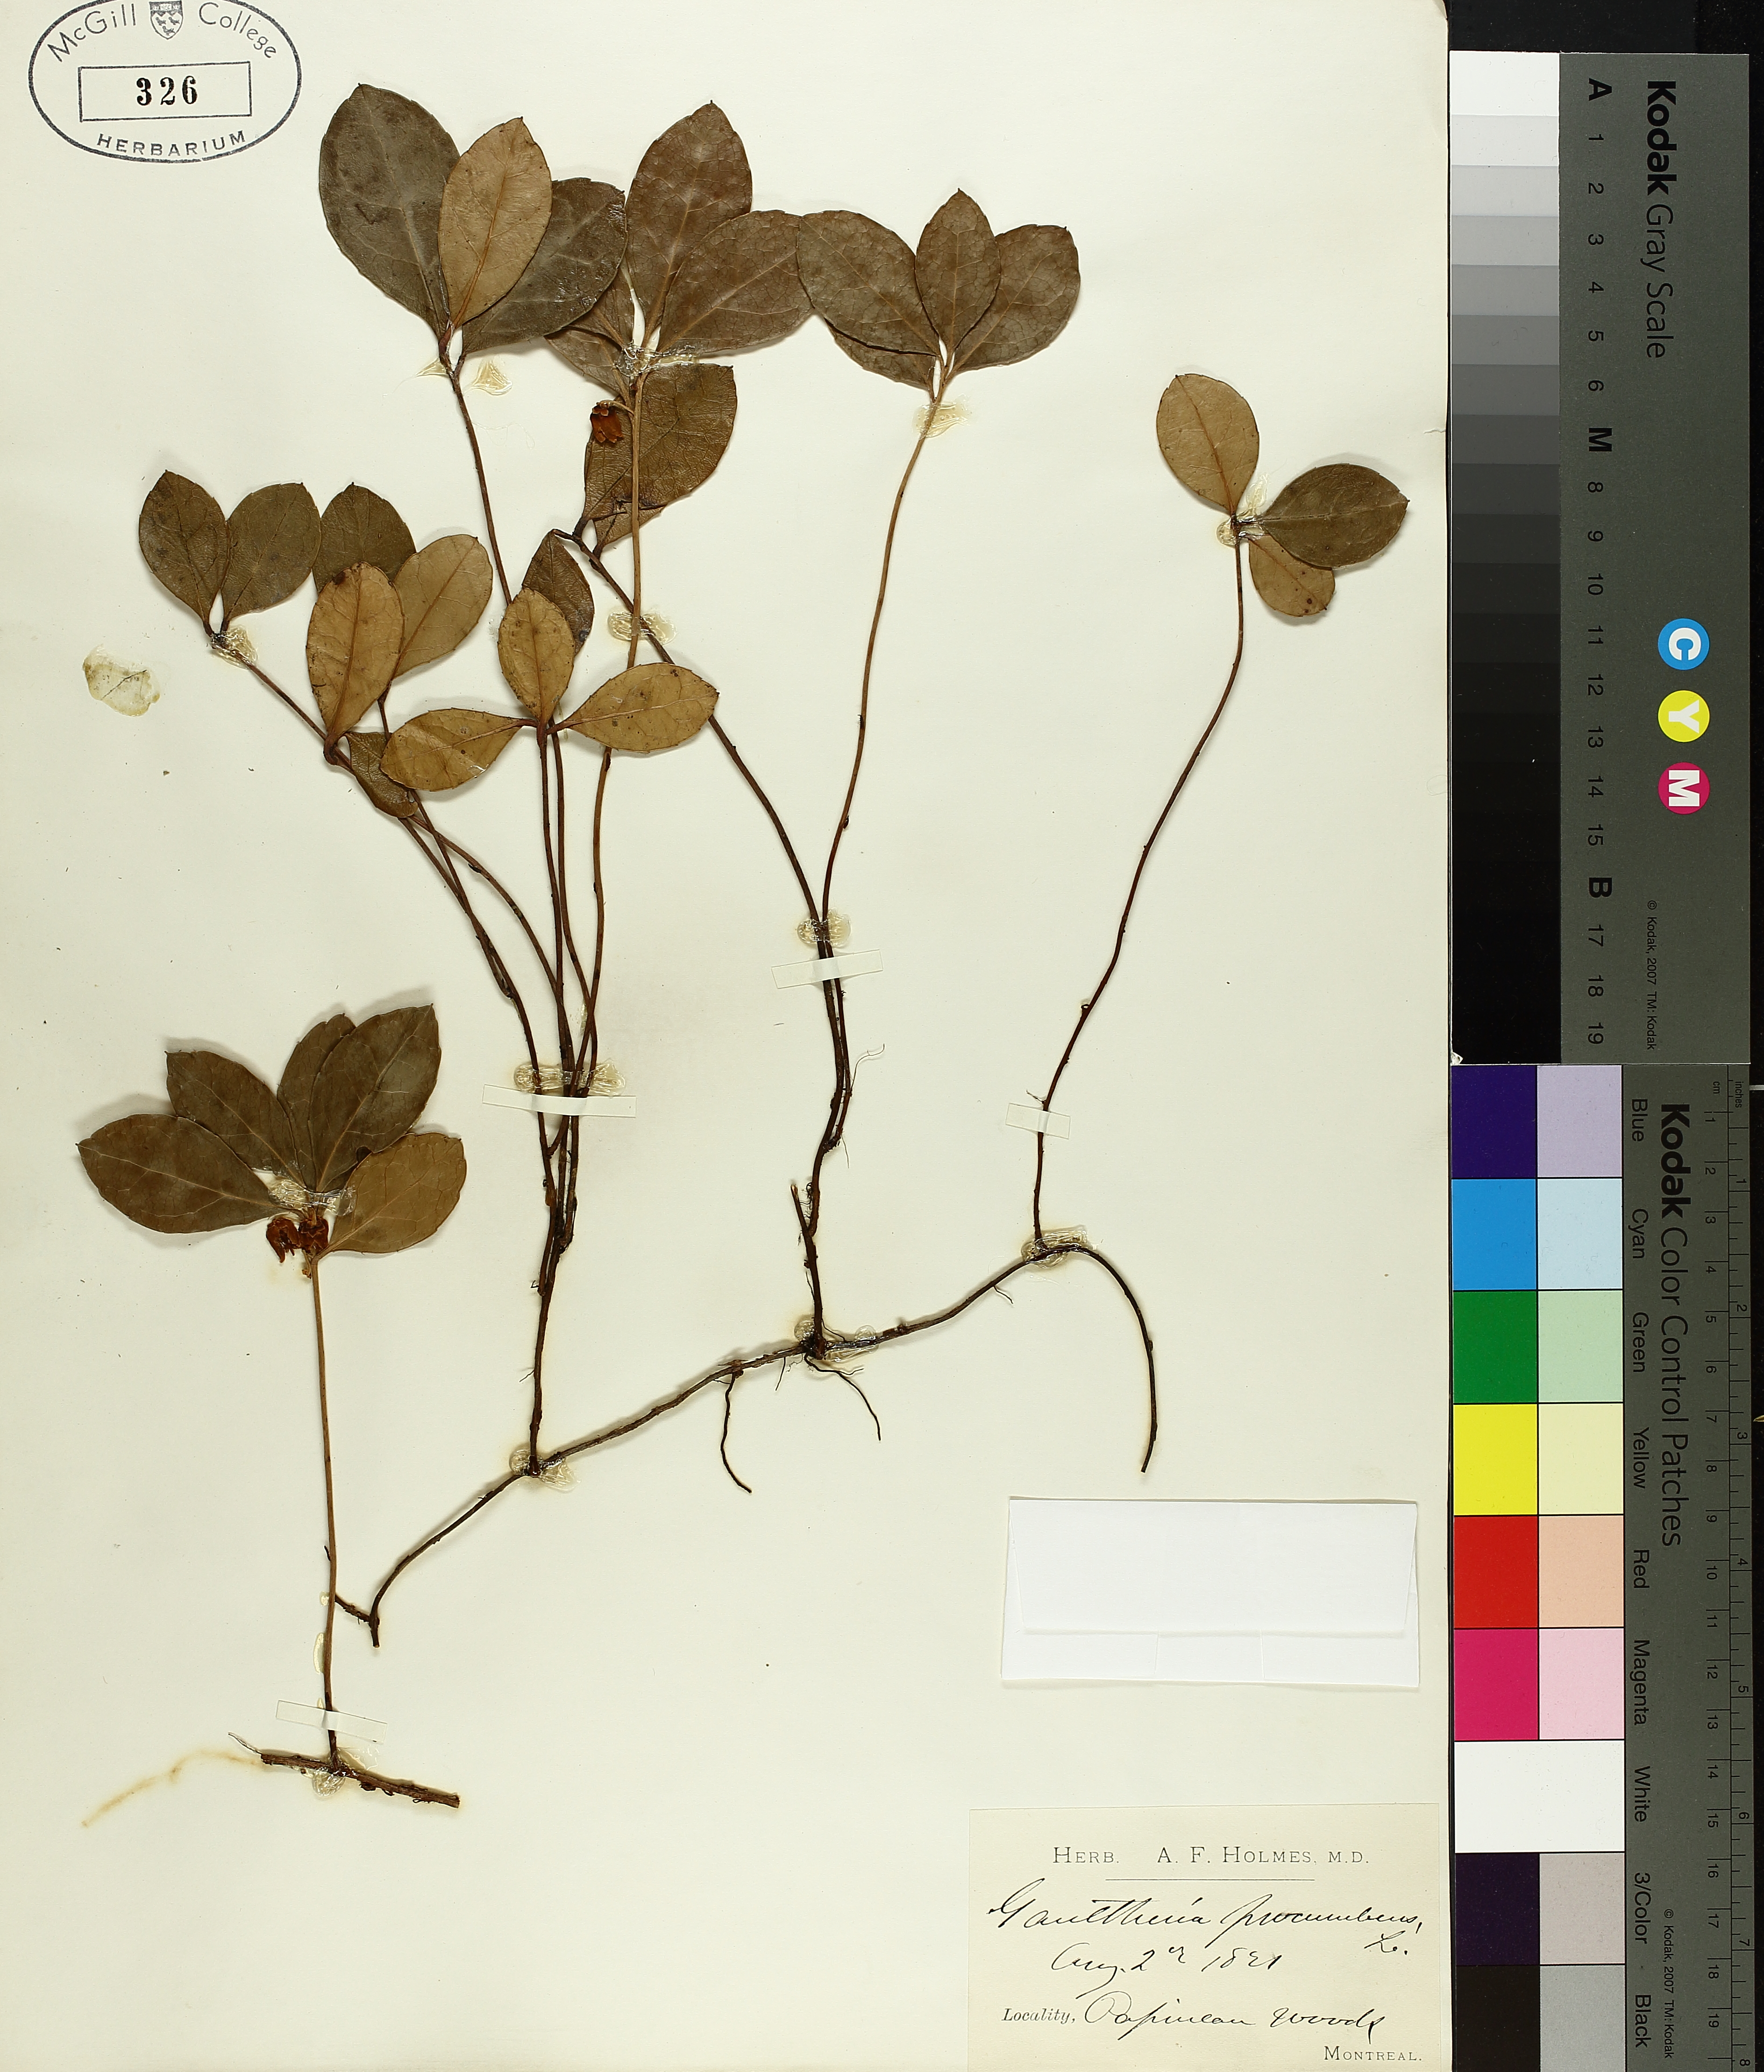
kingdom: Plantae
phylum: Tracheophyta
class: Magnoliopsida
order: Ericales
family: Ericaceae
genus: Chamaedaphne
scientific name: Chamaedaphne calyculata
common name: Leatherleaf
